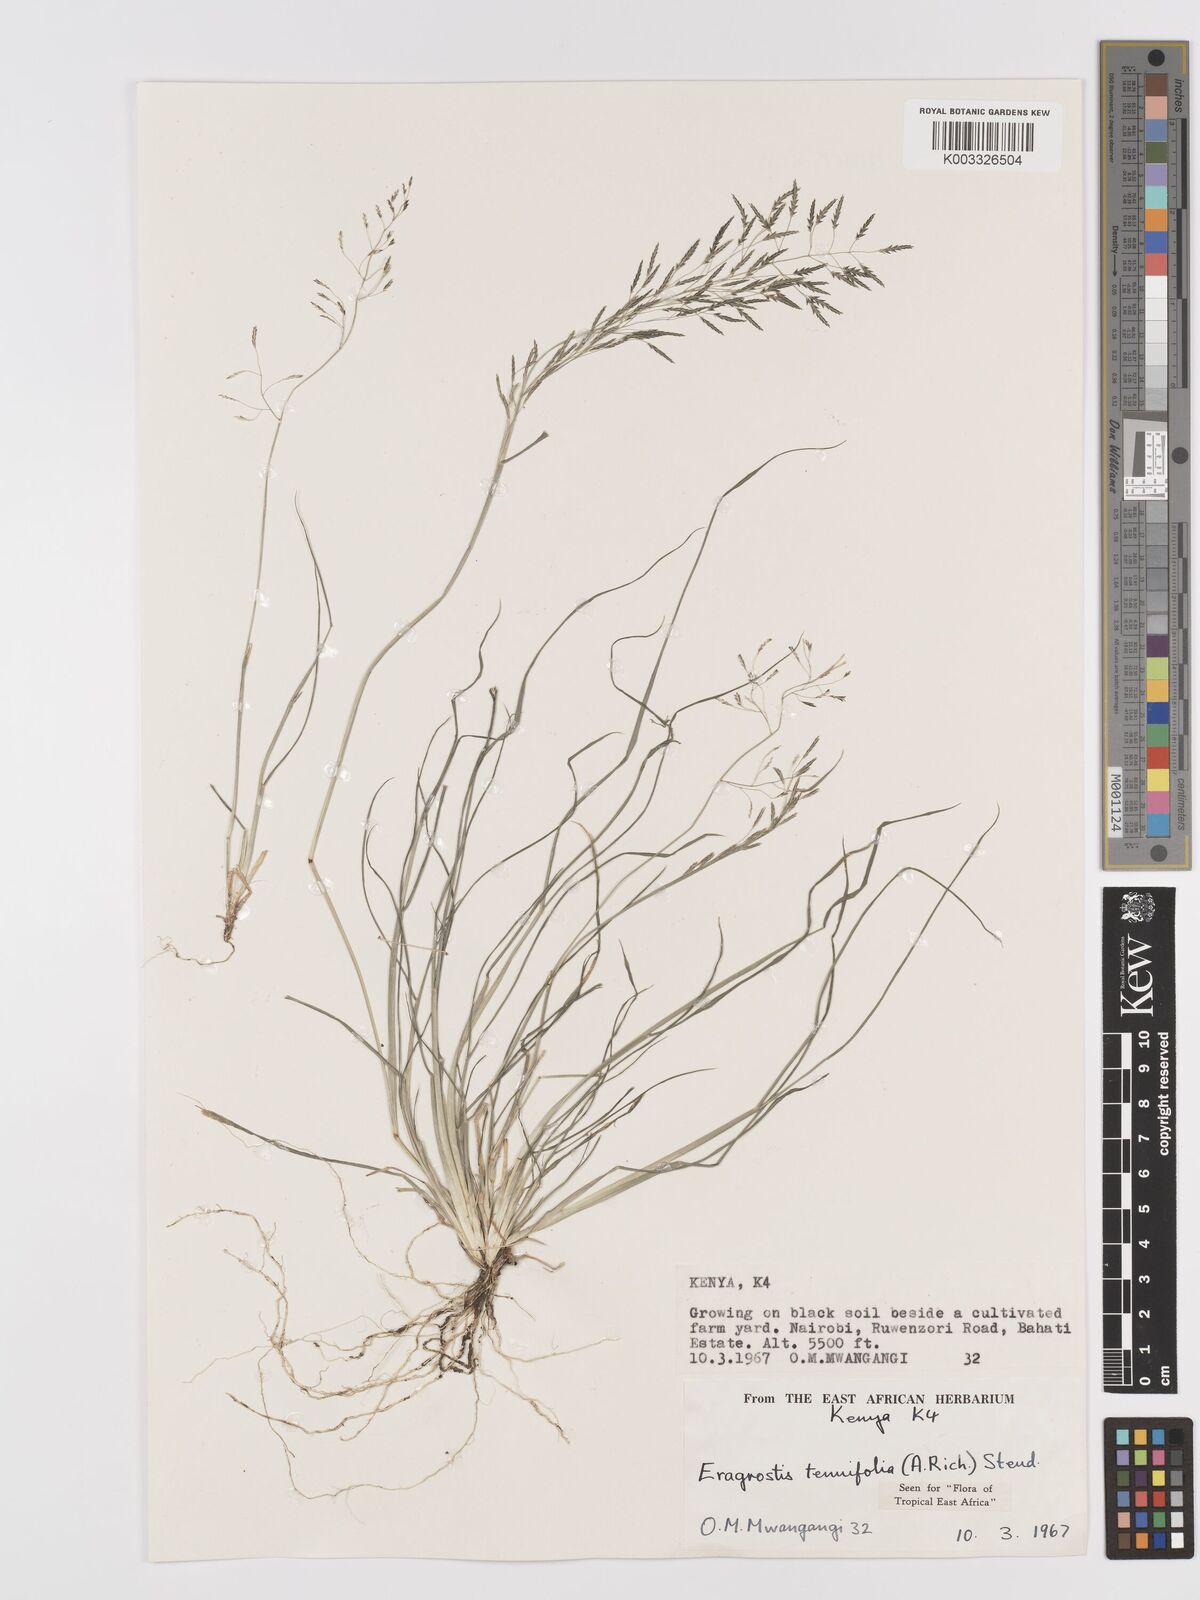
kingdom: Plantae
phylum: Tracheophyta
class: Liliopsida
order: Poales
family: Poaceae
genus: Eragrostis
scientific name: Eragrostis tenuifolia
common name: Elastic grass
